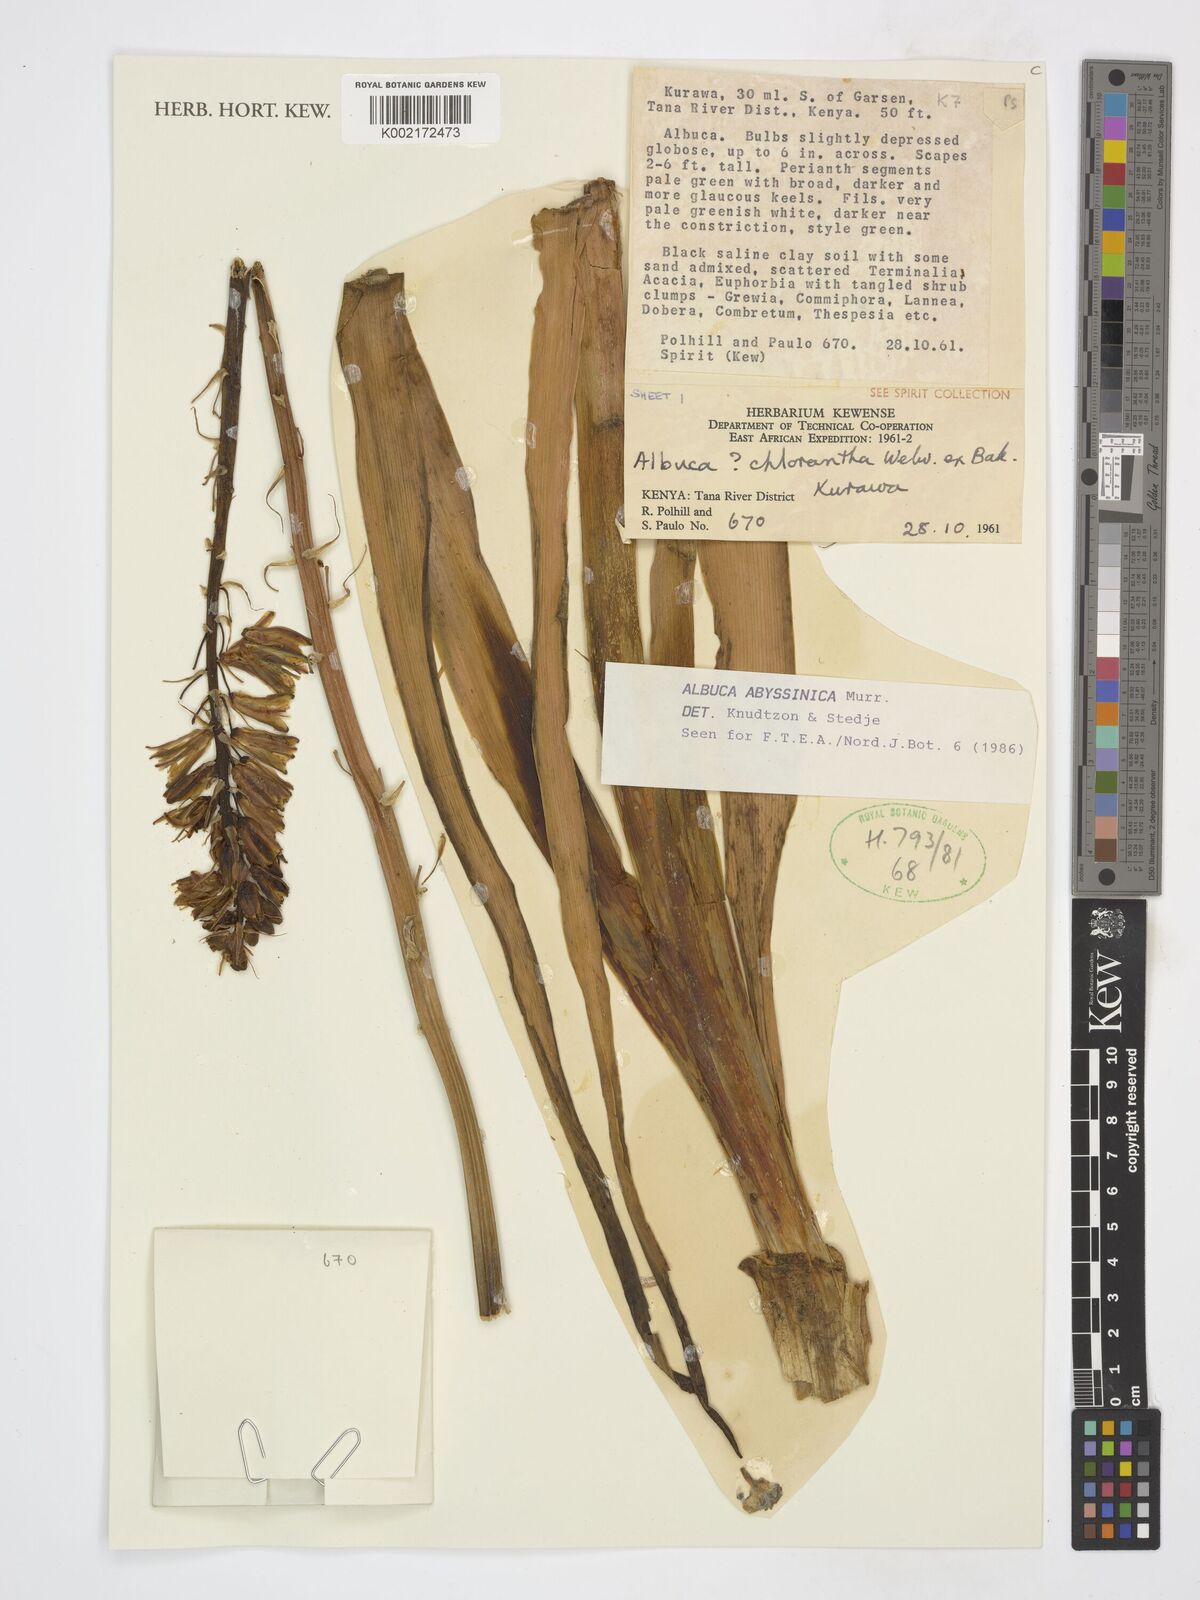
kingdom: Plantae
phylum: Tracheophyta
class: Liliopsida
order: Asparagales
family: Asparagaceae
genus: Albuca
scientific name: Albuca abyssinica
